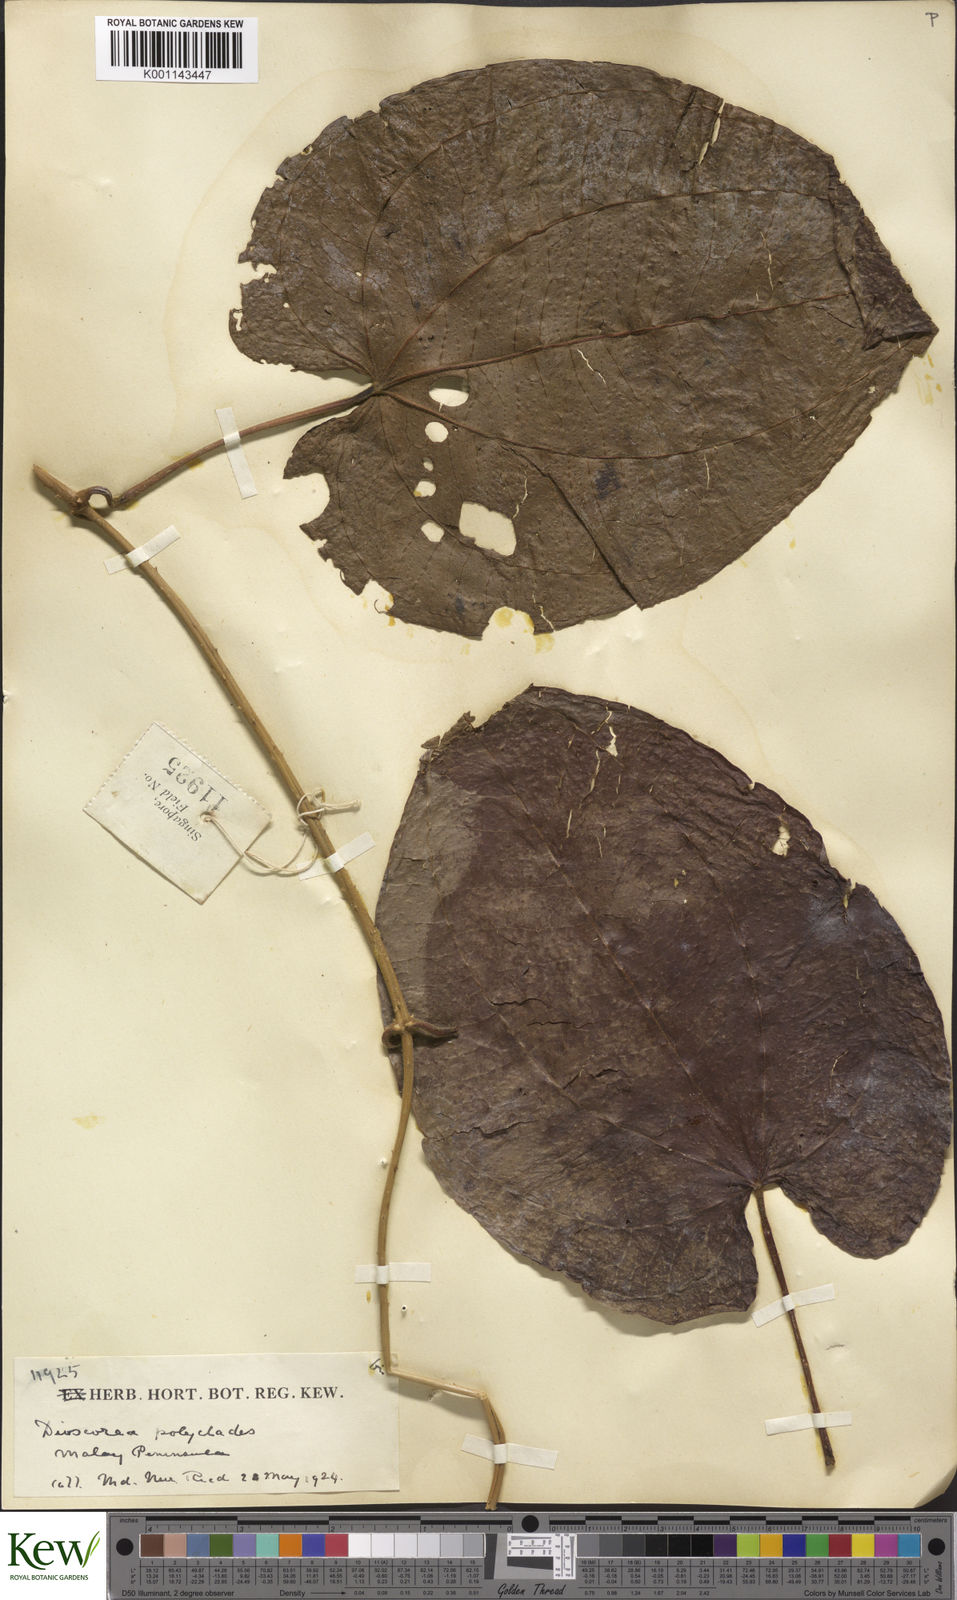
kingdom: Plantae
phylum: Tracheophyta
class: Liliopsida
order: Dioscoreales
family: Dioscoreaceae
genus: Dioscorea
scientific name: Dioscorea polyclados
